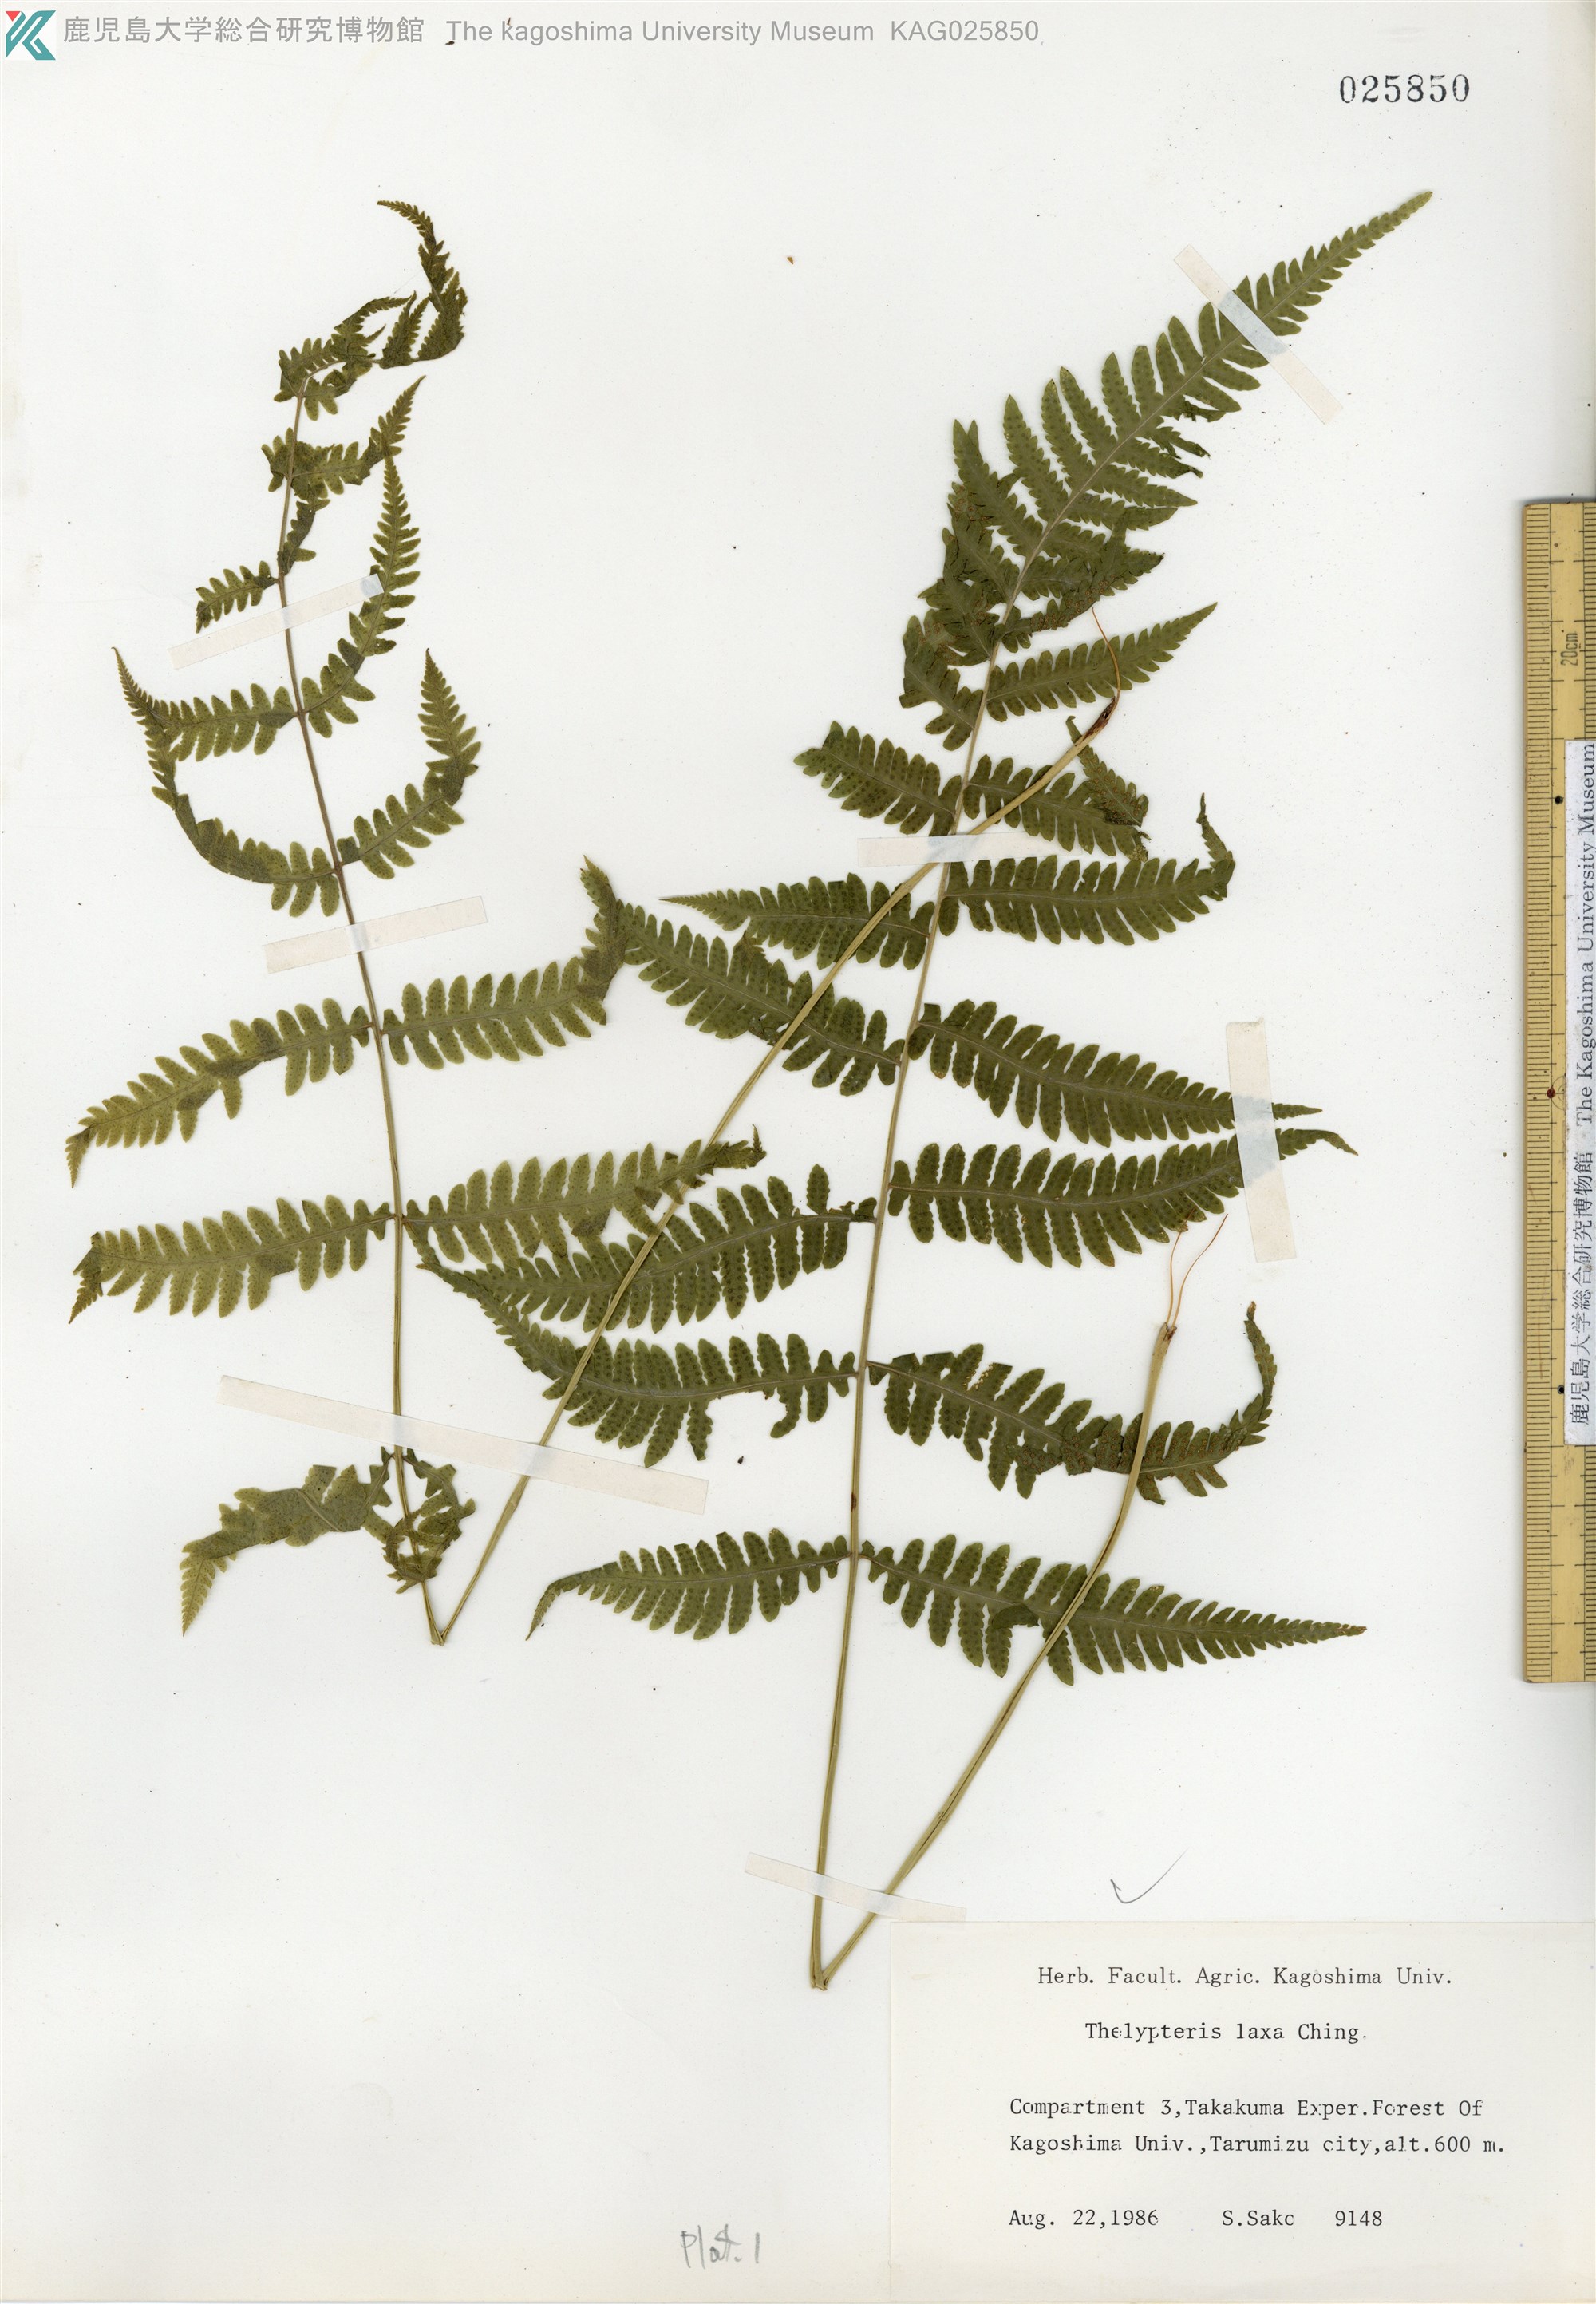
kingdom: Plantae
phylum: Tracheophyta
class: Polypodiopsida
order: Polypodiales
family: Thelypteridaceae
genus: Metathelypteris
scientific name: Metathelypteris laxa
